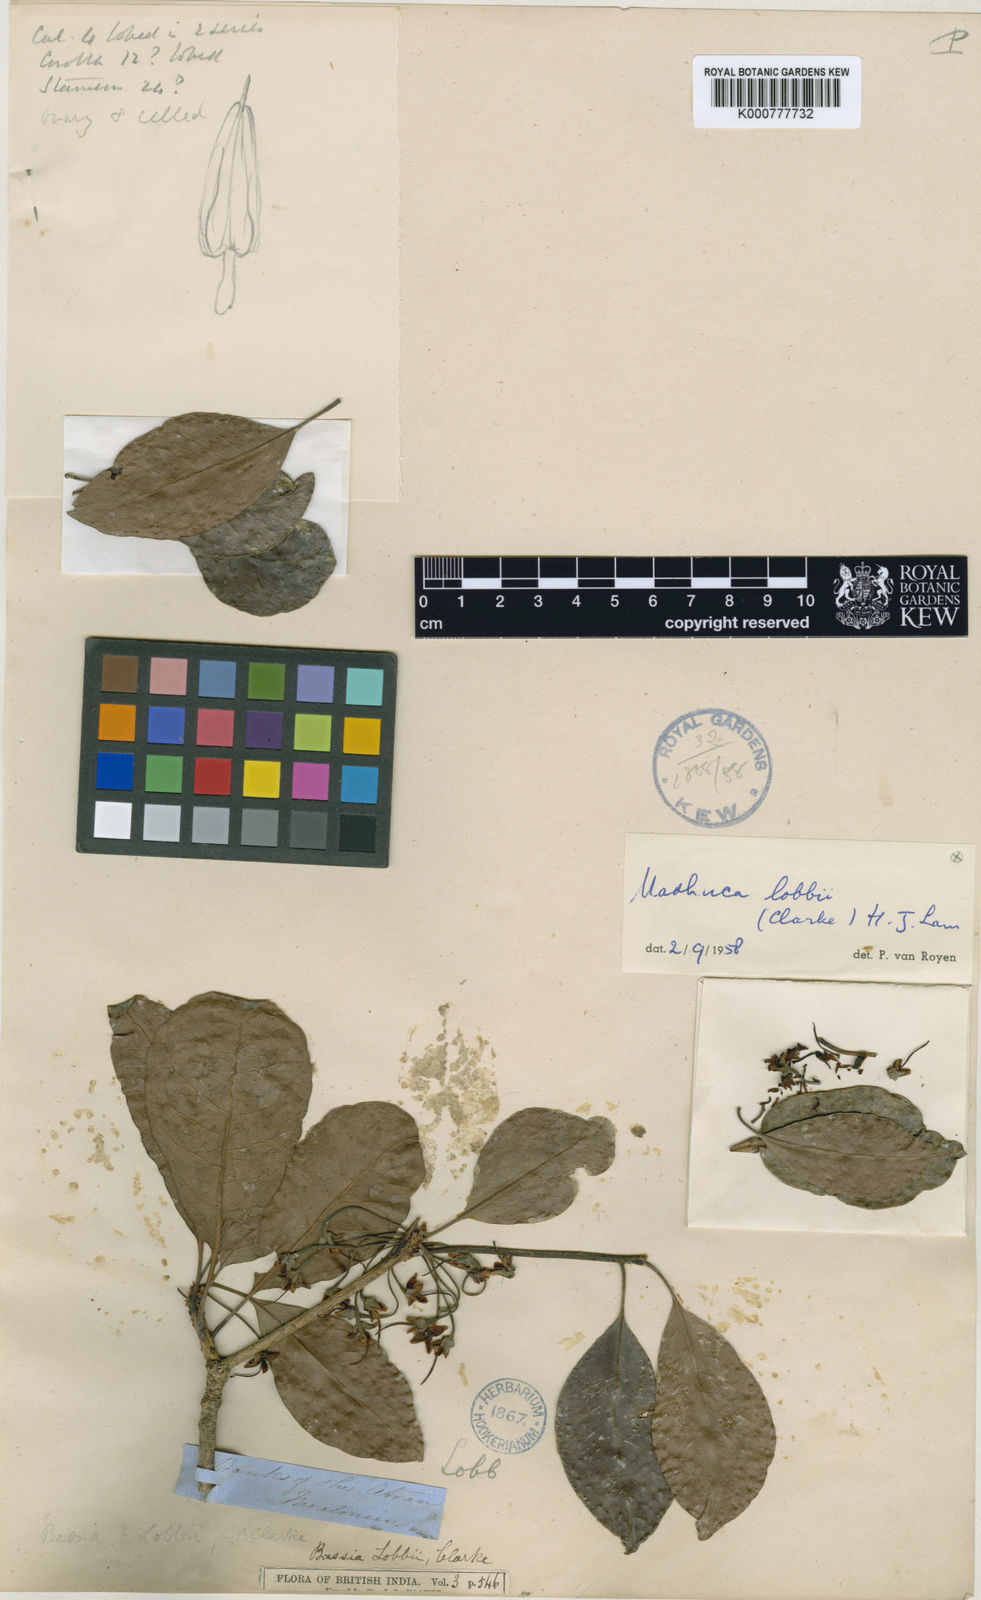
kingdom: Plantae
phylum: Tracheophyta
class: Magnoliopsida
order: Ericales
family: Sapotaceae
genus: Madhuca
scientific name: Madhuca lobbii
